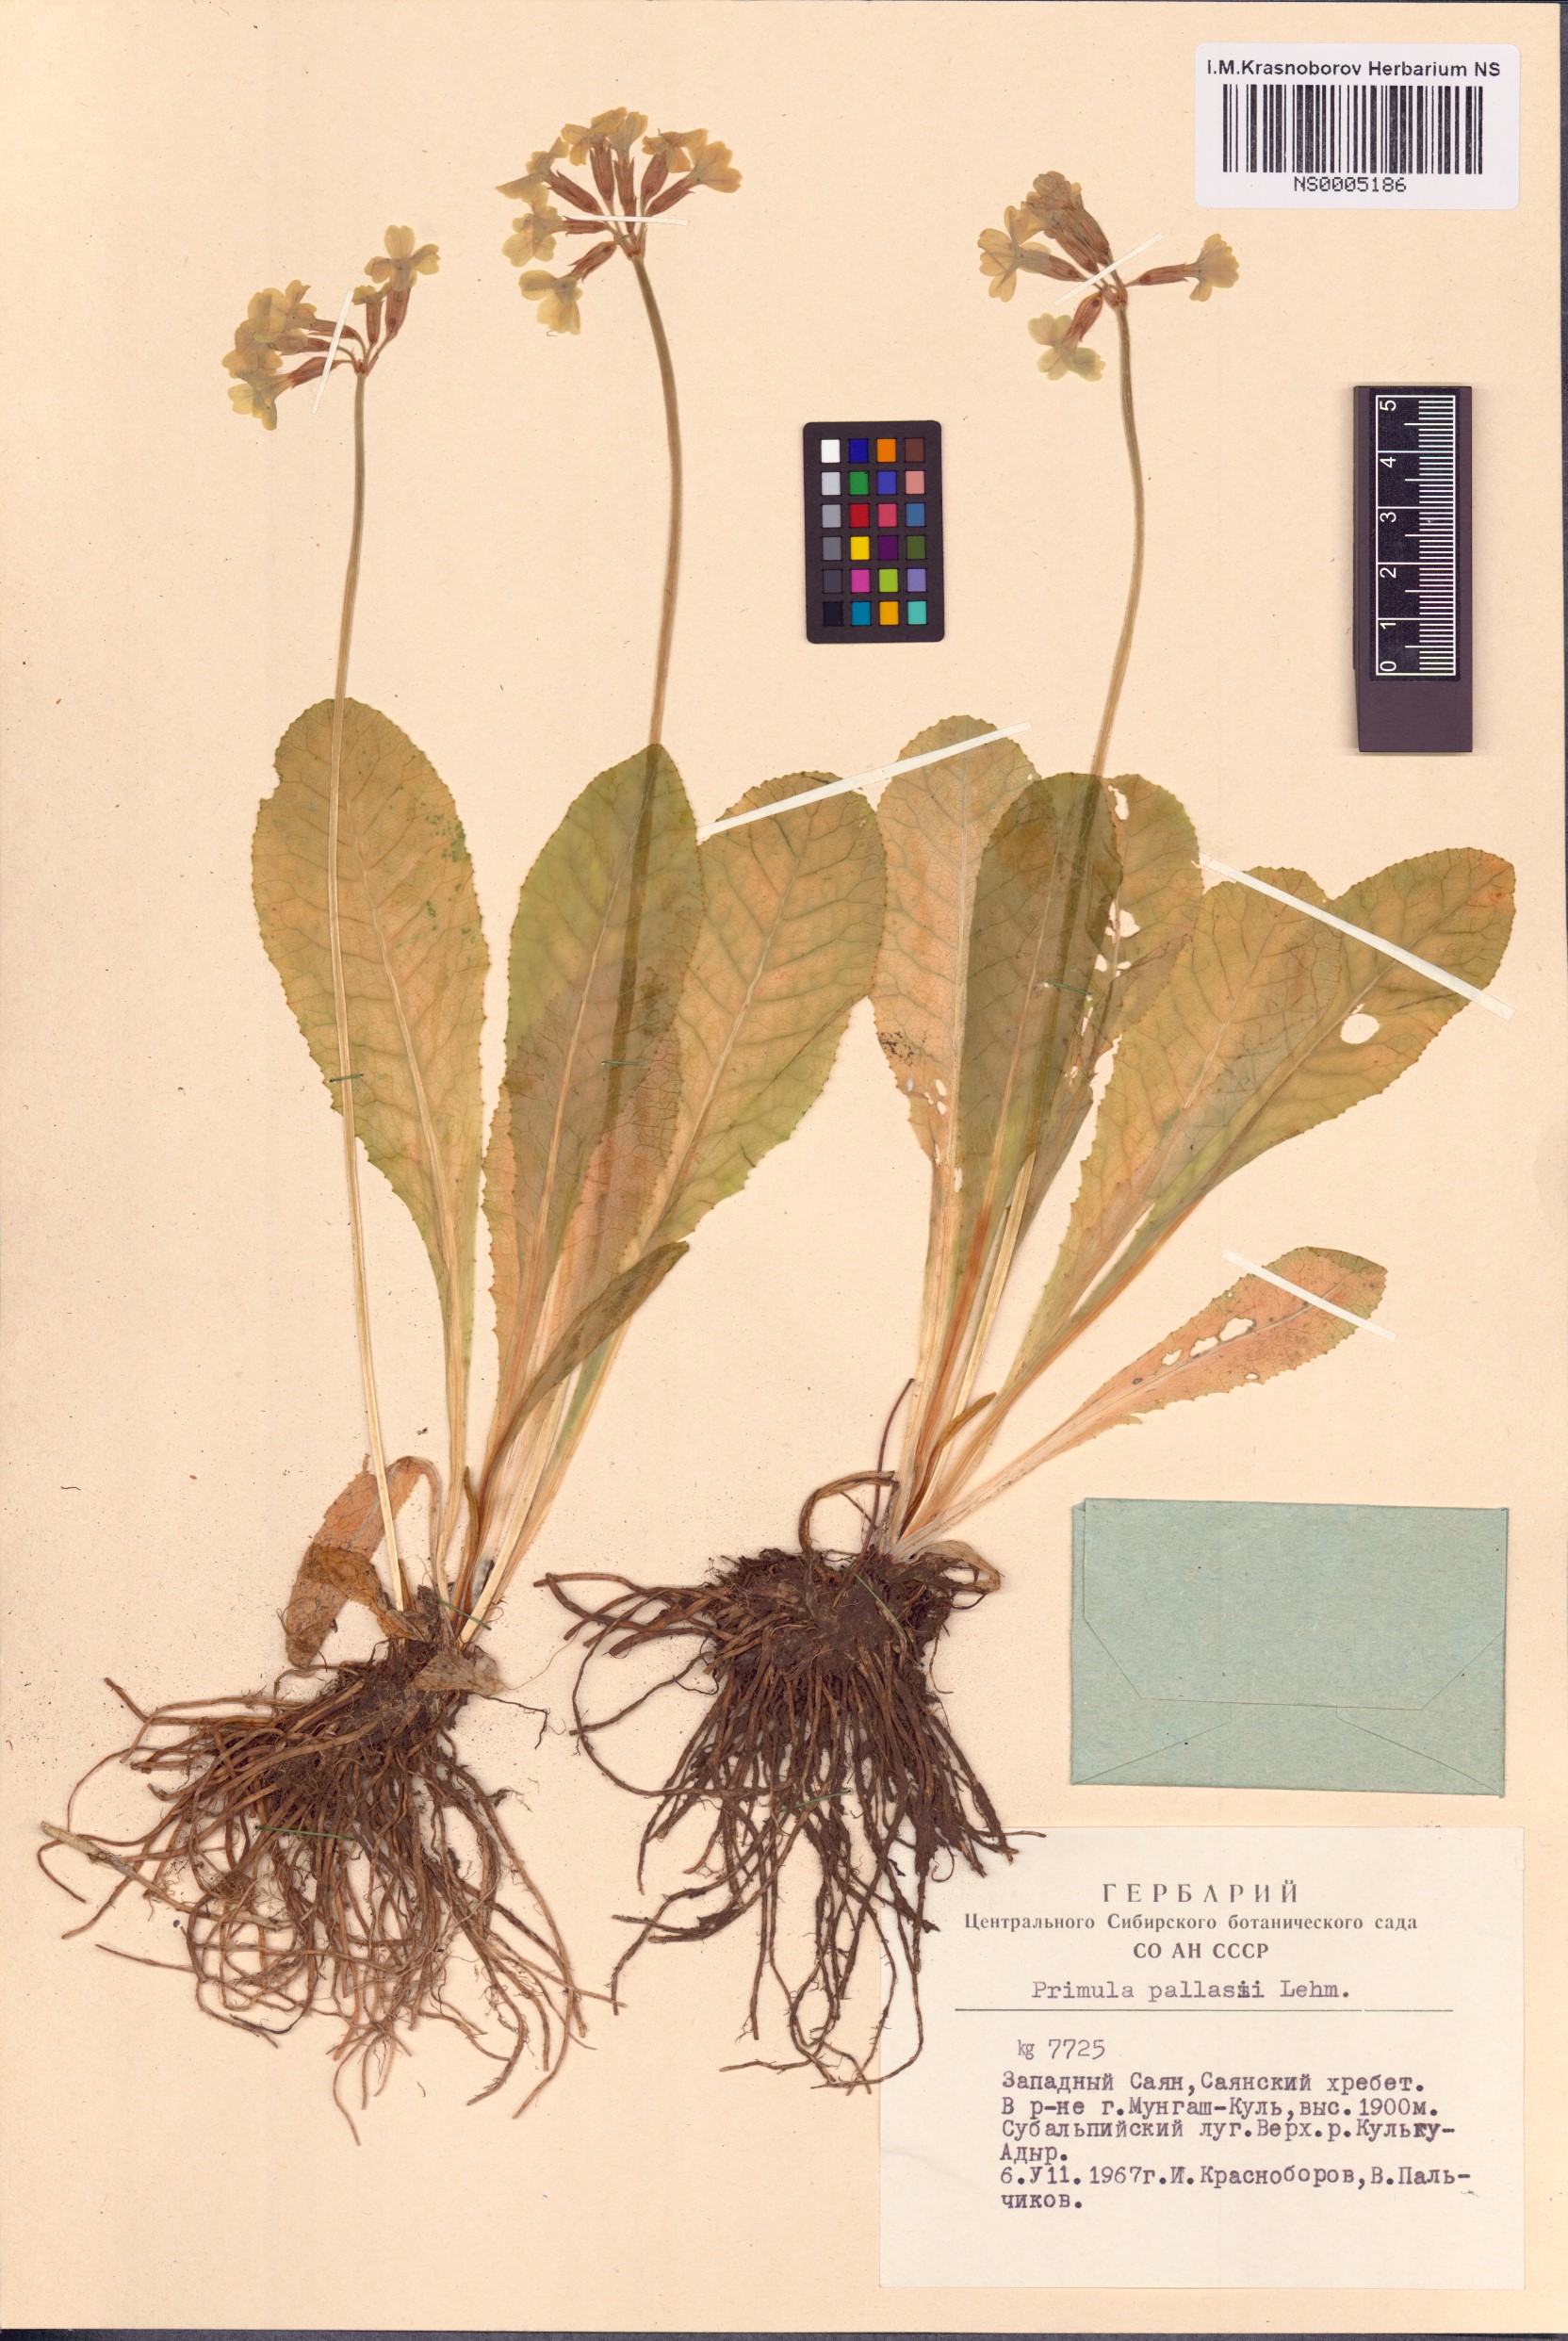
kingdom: Plantae
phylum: Tracheophyta
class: Magnoliopsida
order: Ericales
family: Primulaceae
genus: Primula
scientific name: Primula elatior
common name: Oxlip
